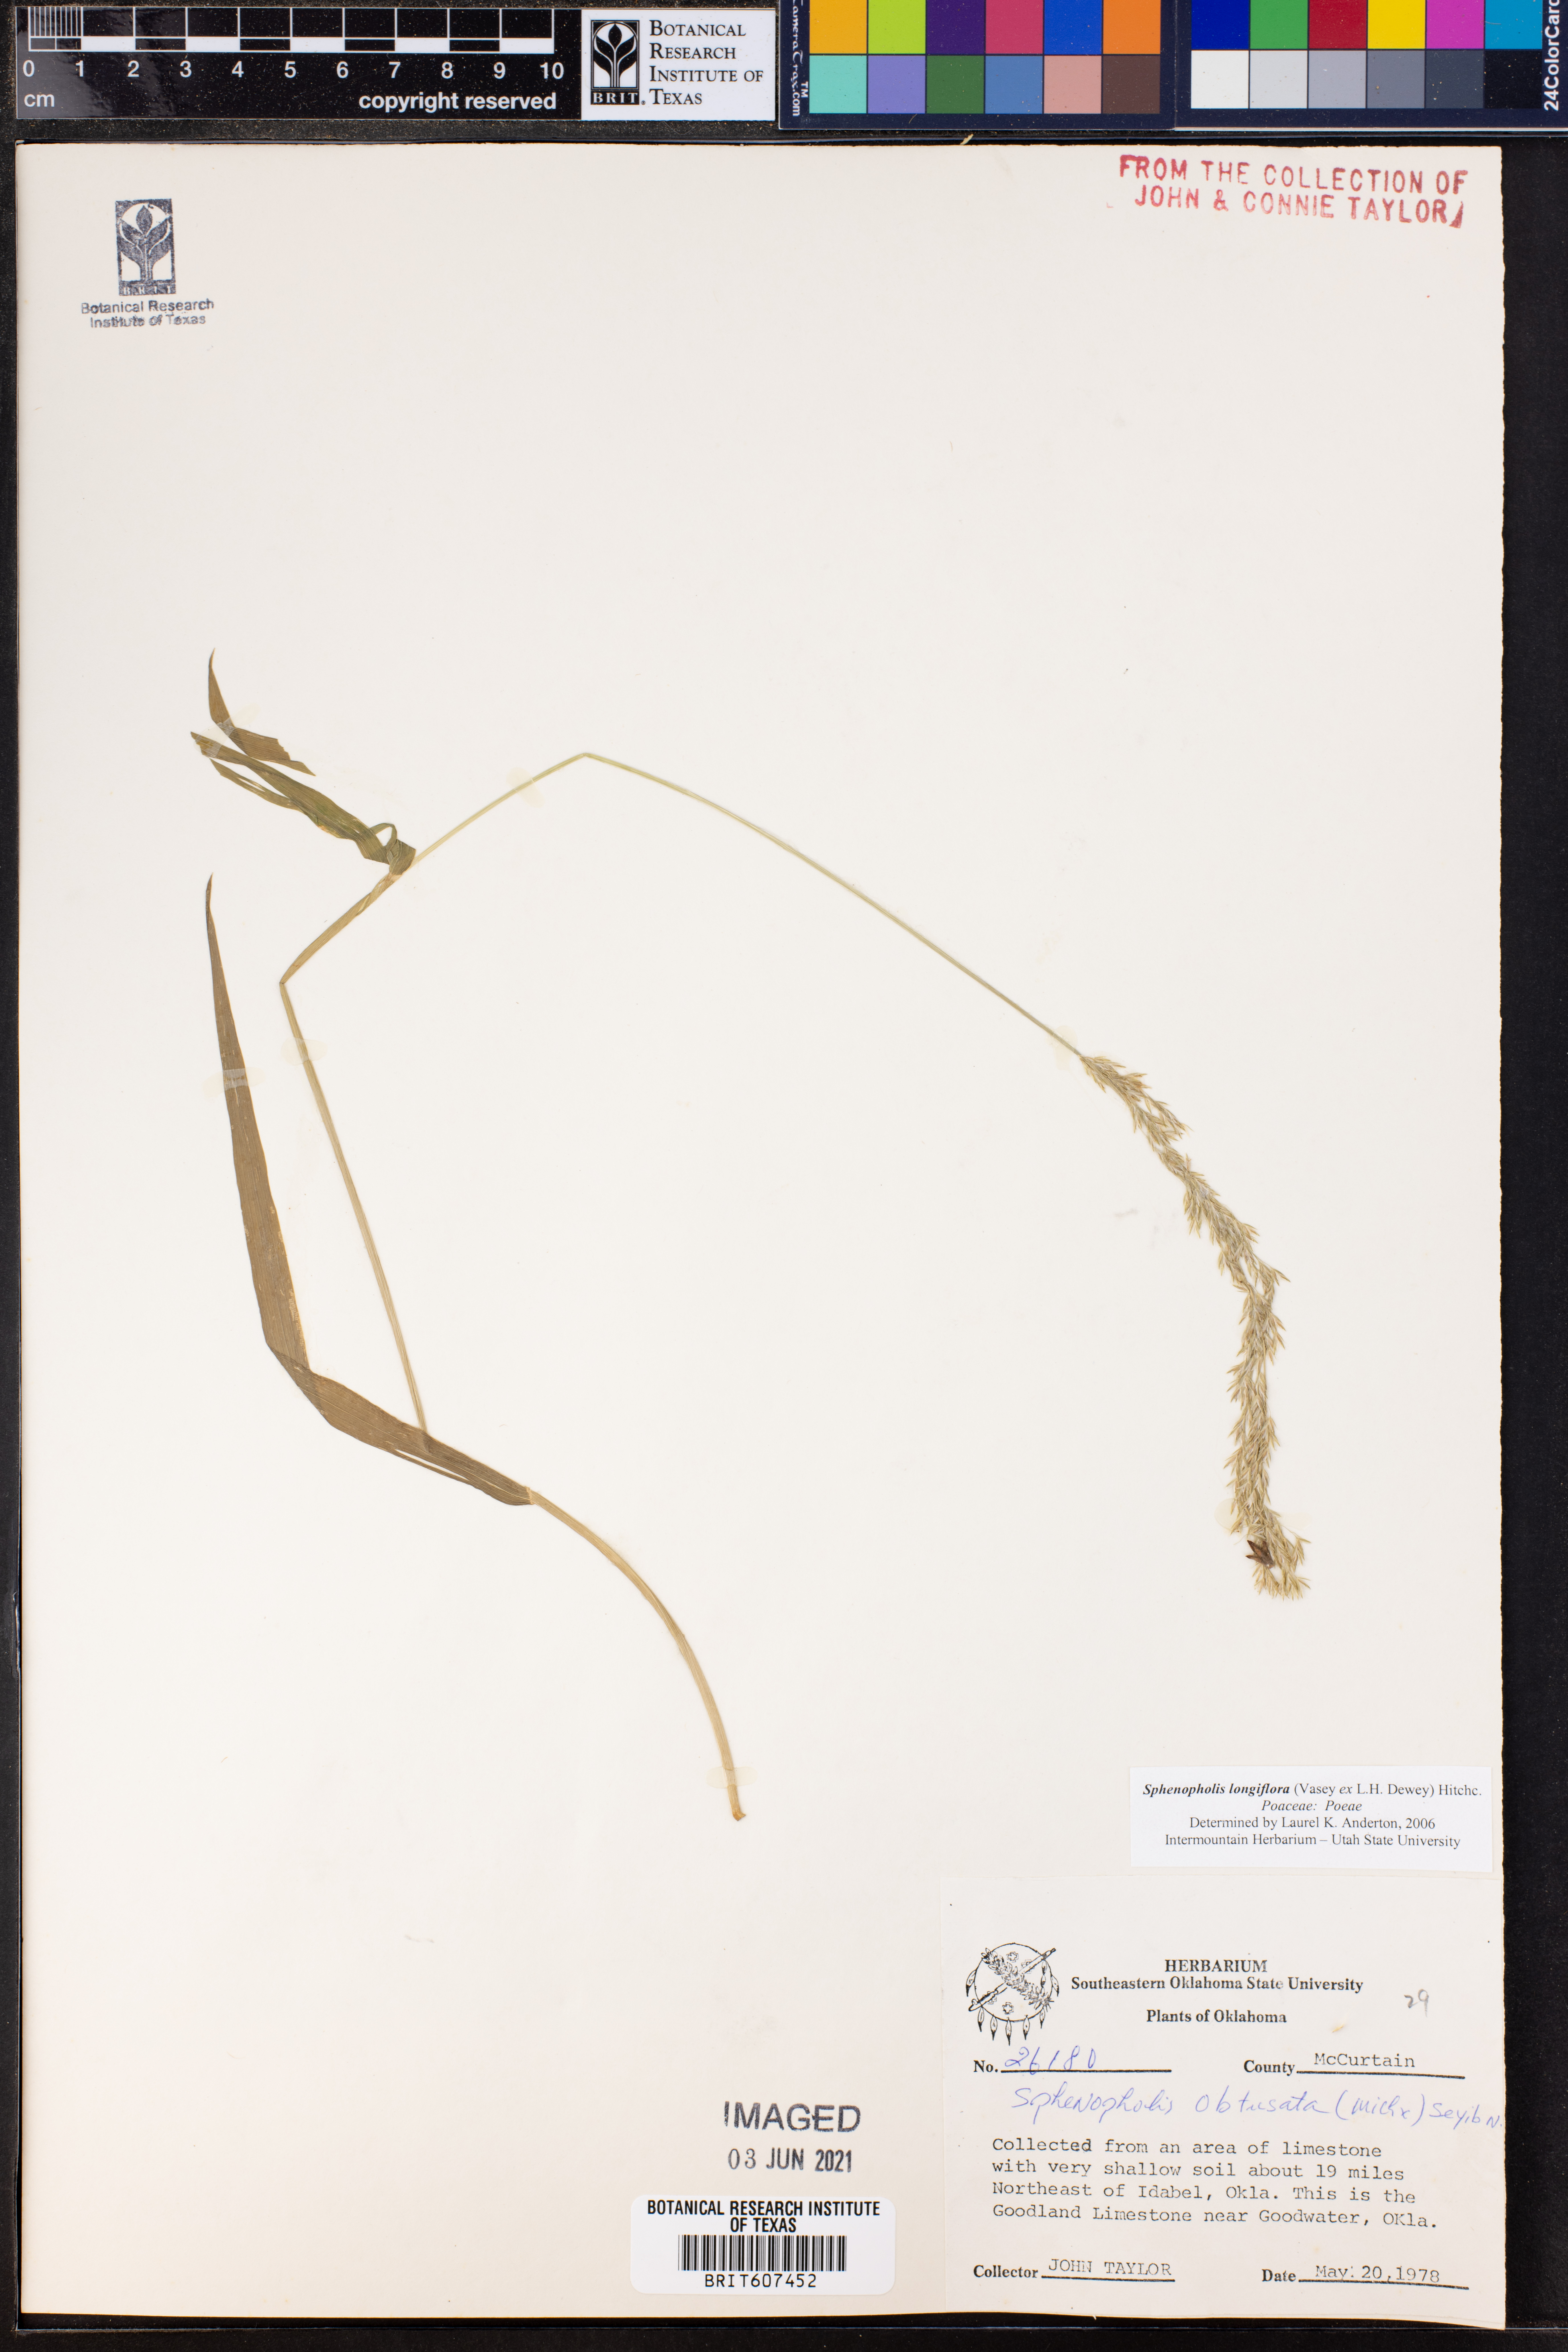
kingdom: Plantae
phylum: Tracheophyta
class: Liliopsida
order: Poales
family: Poaceae
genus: Sphenopholis
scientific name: Sphenopholis intermedia
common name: Intermediate eaton's grass
